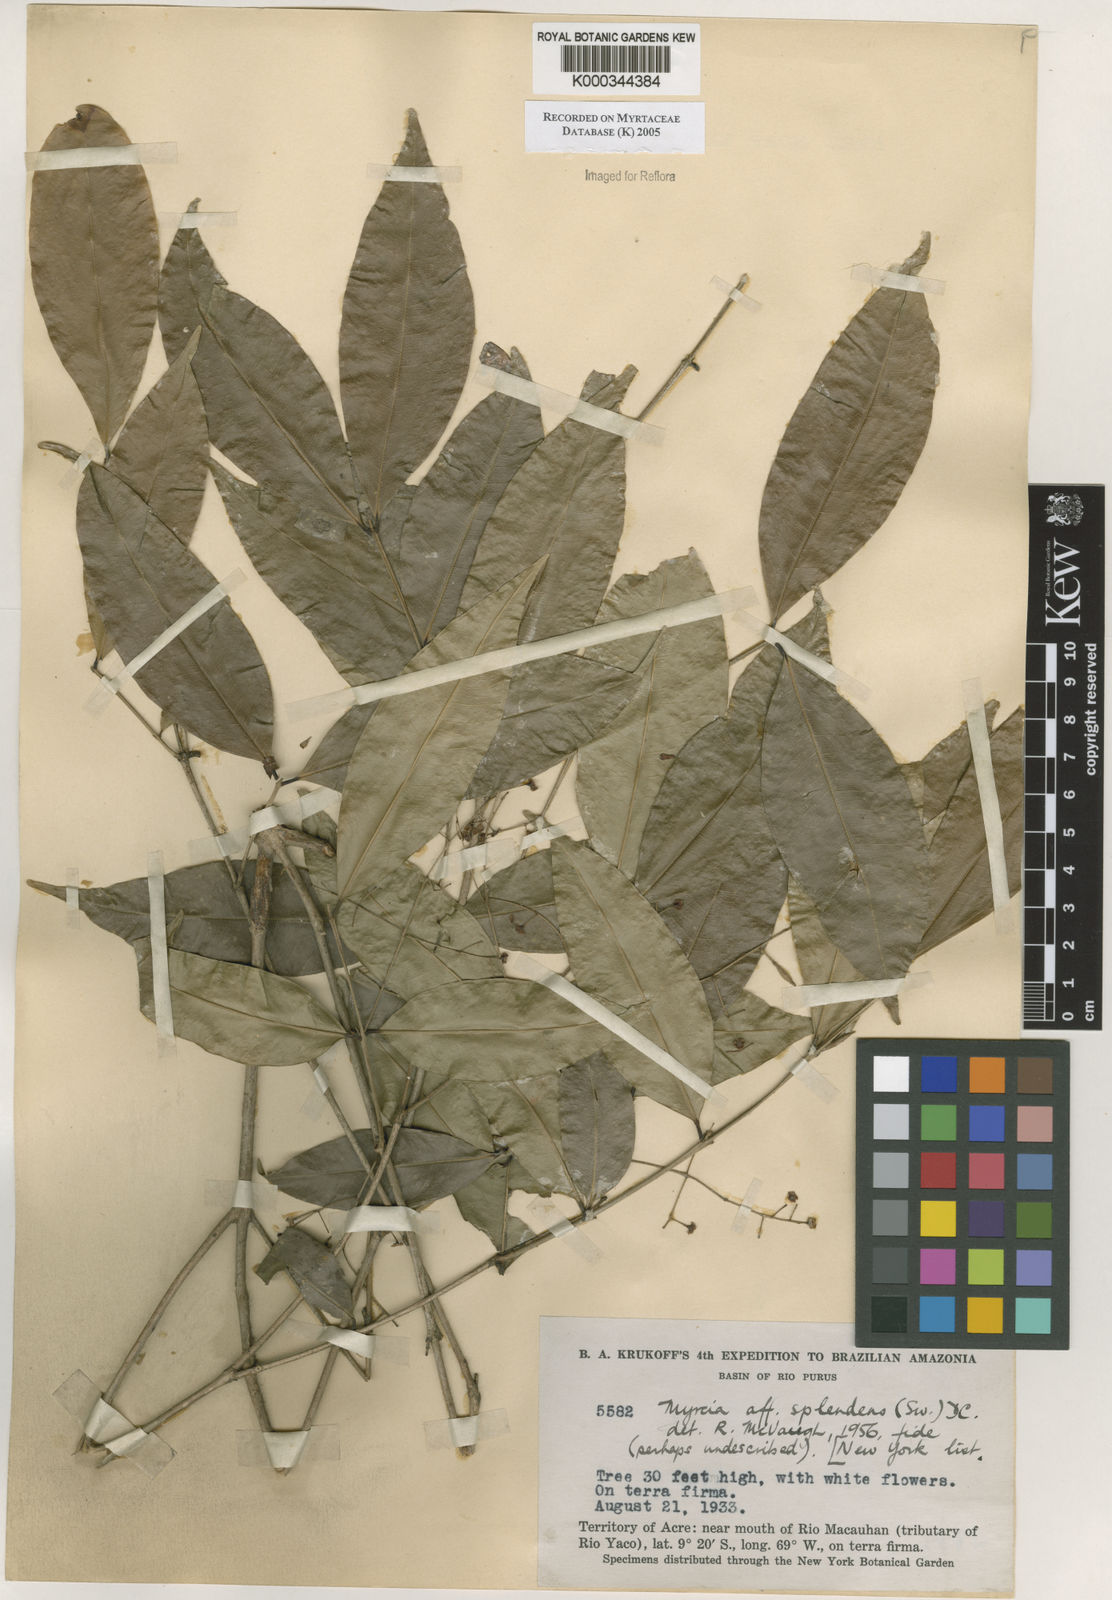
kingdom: Plantae
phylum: Tracheophyta
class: Magnoliopsida
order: Myrtales
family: Myrtaceae
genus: Myrcia
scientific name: Myrcia splendens
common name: Surinam cherry
